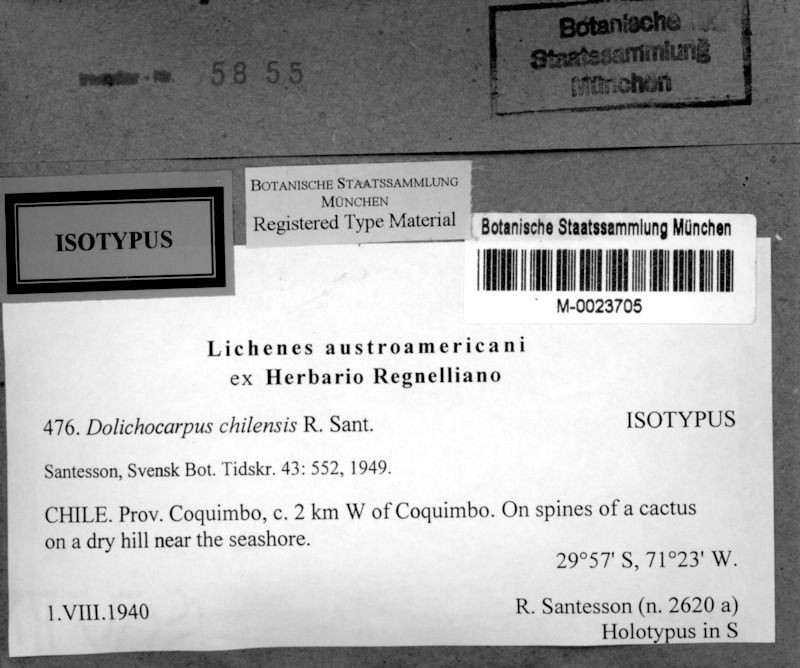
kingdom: Fungi
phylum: Ascomycota
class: Arthoniomycetes
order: Arthoniales
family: Opegraphaceae
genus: Dolichocarpus
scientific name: Dolichocarpus chilensis
